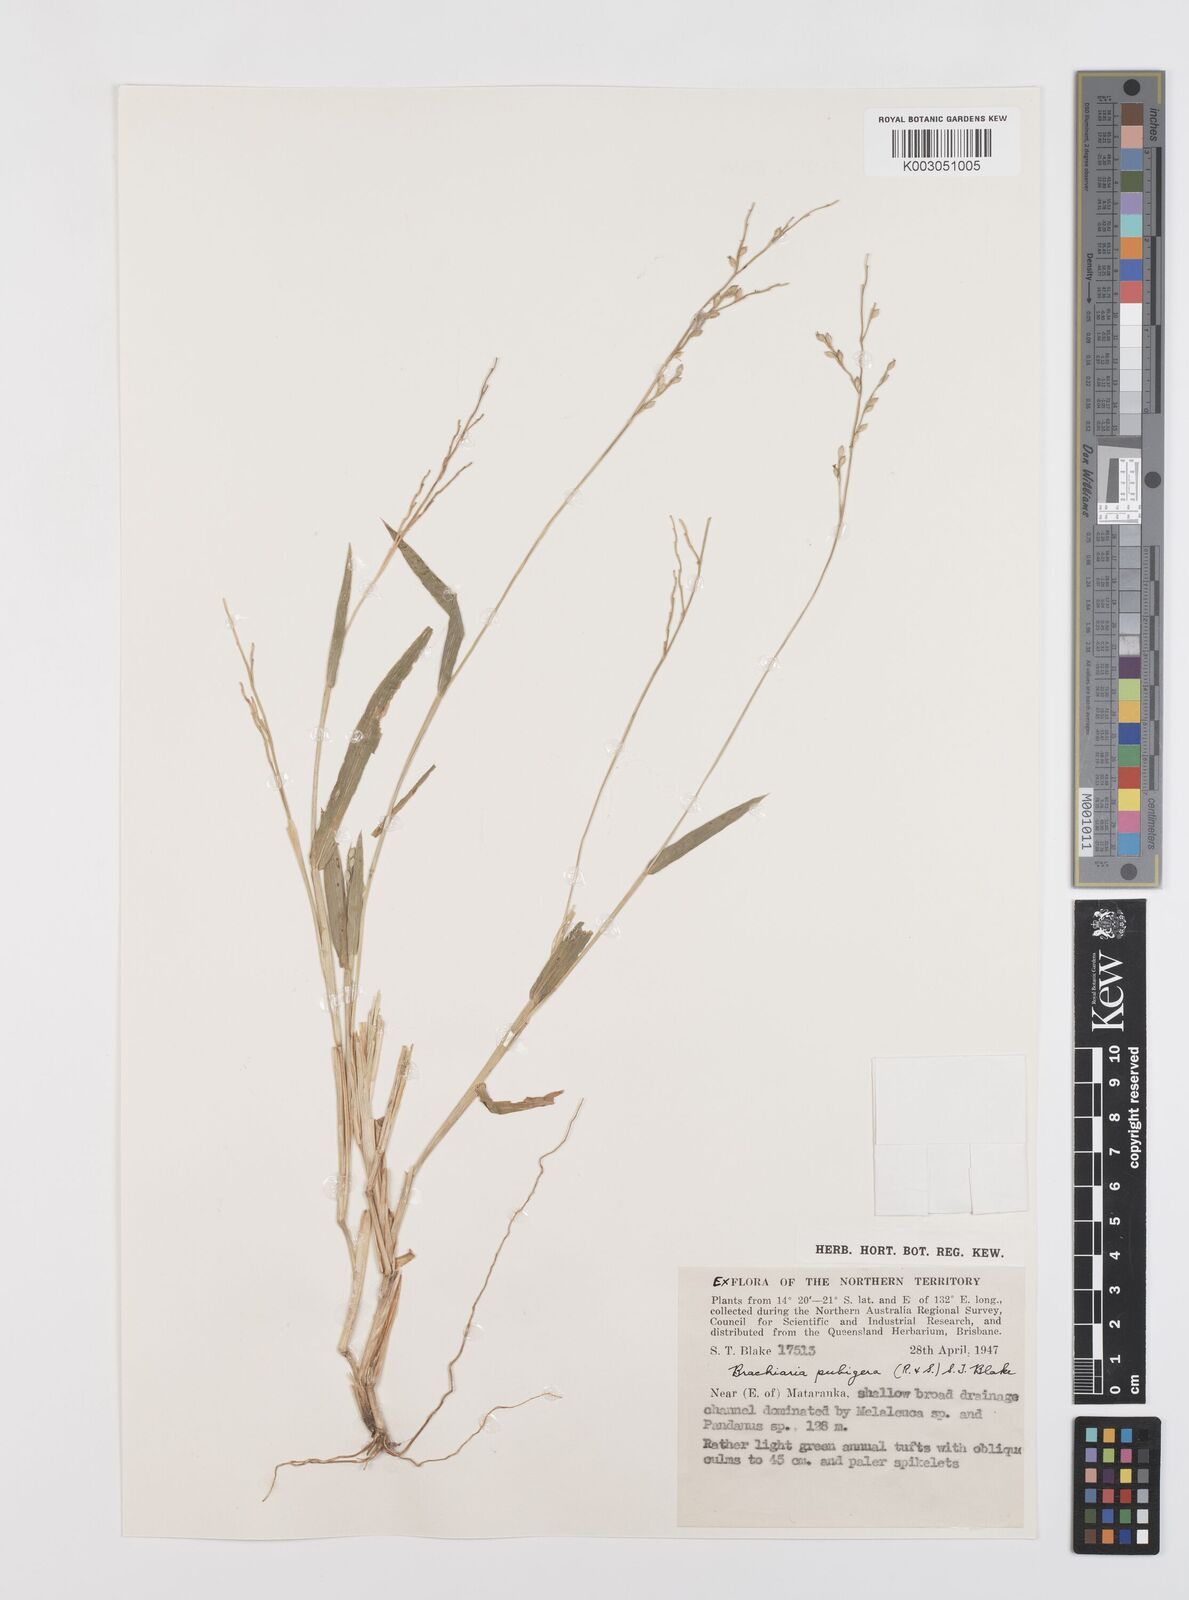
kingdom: Plantae
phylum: Tracheophyta
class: Liliopsida
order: Poales
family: Poaceae
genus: Urochloa
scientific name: Urochloa pubigera
